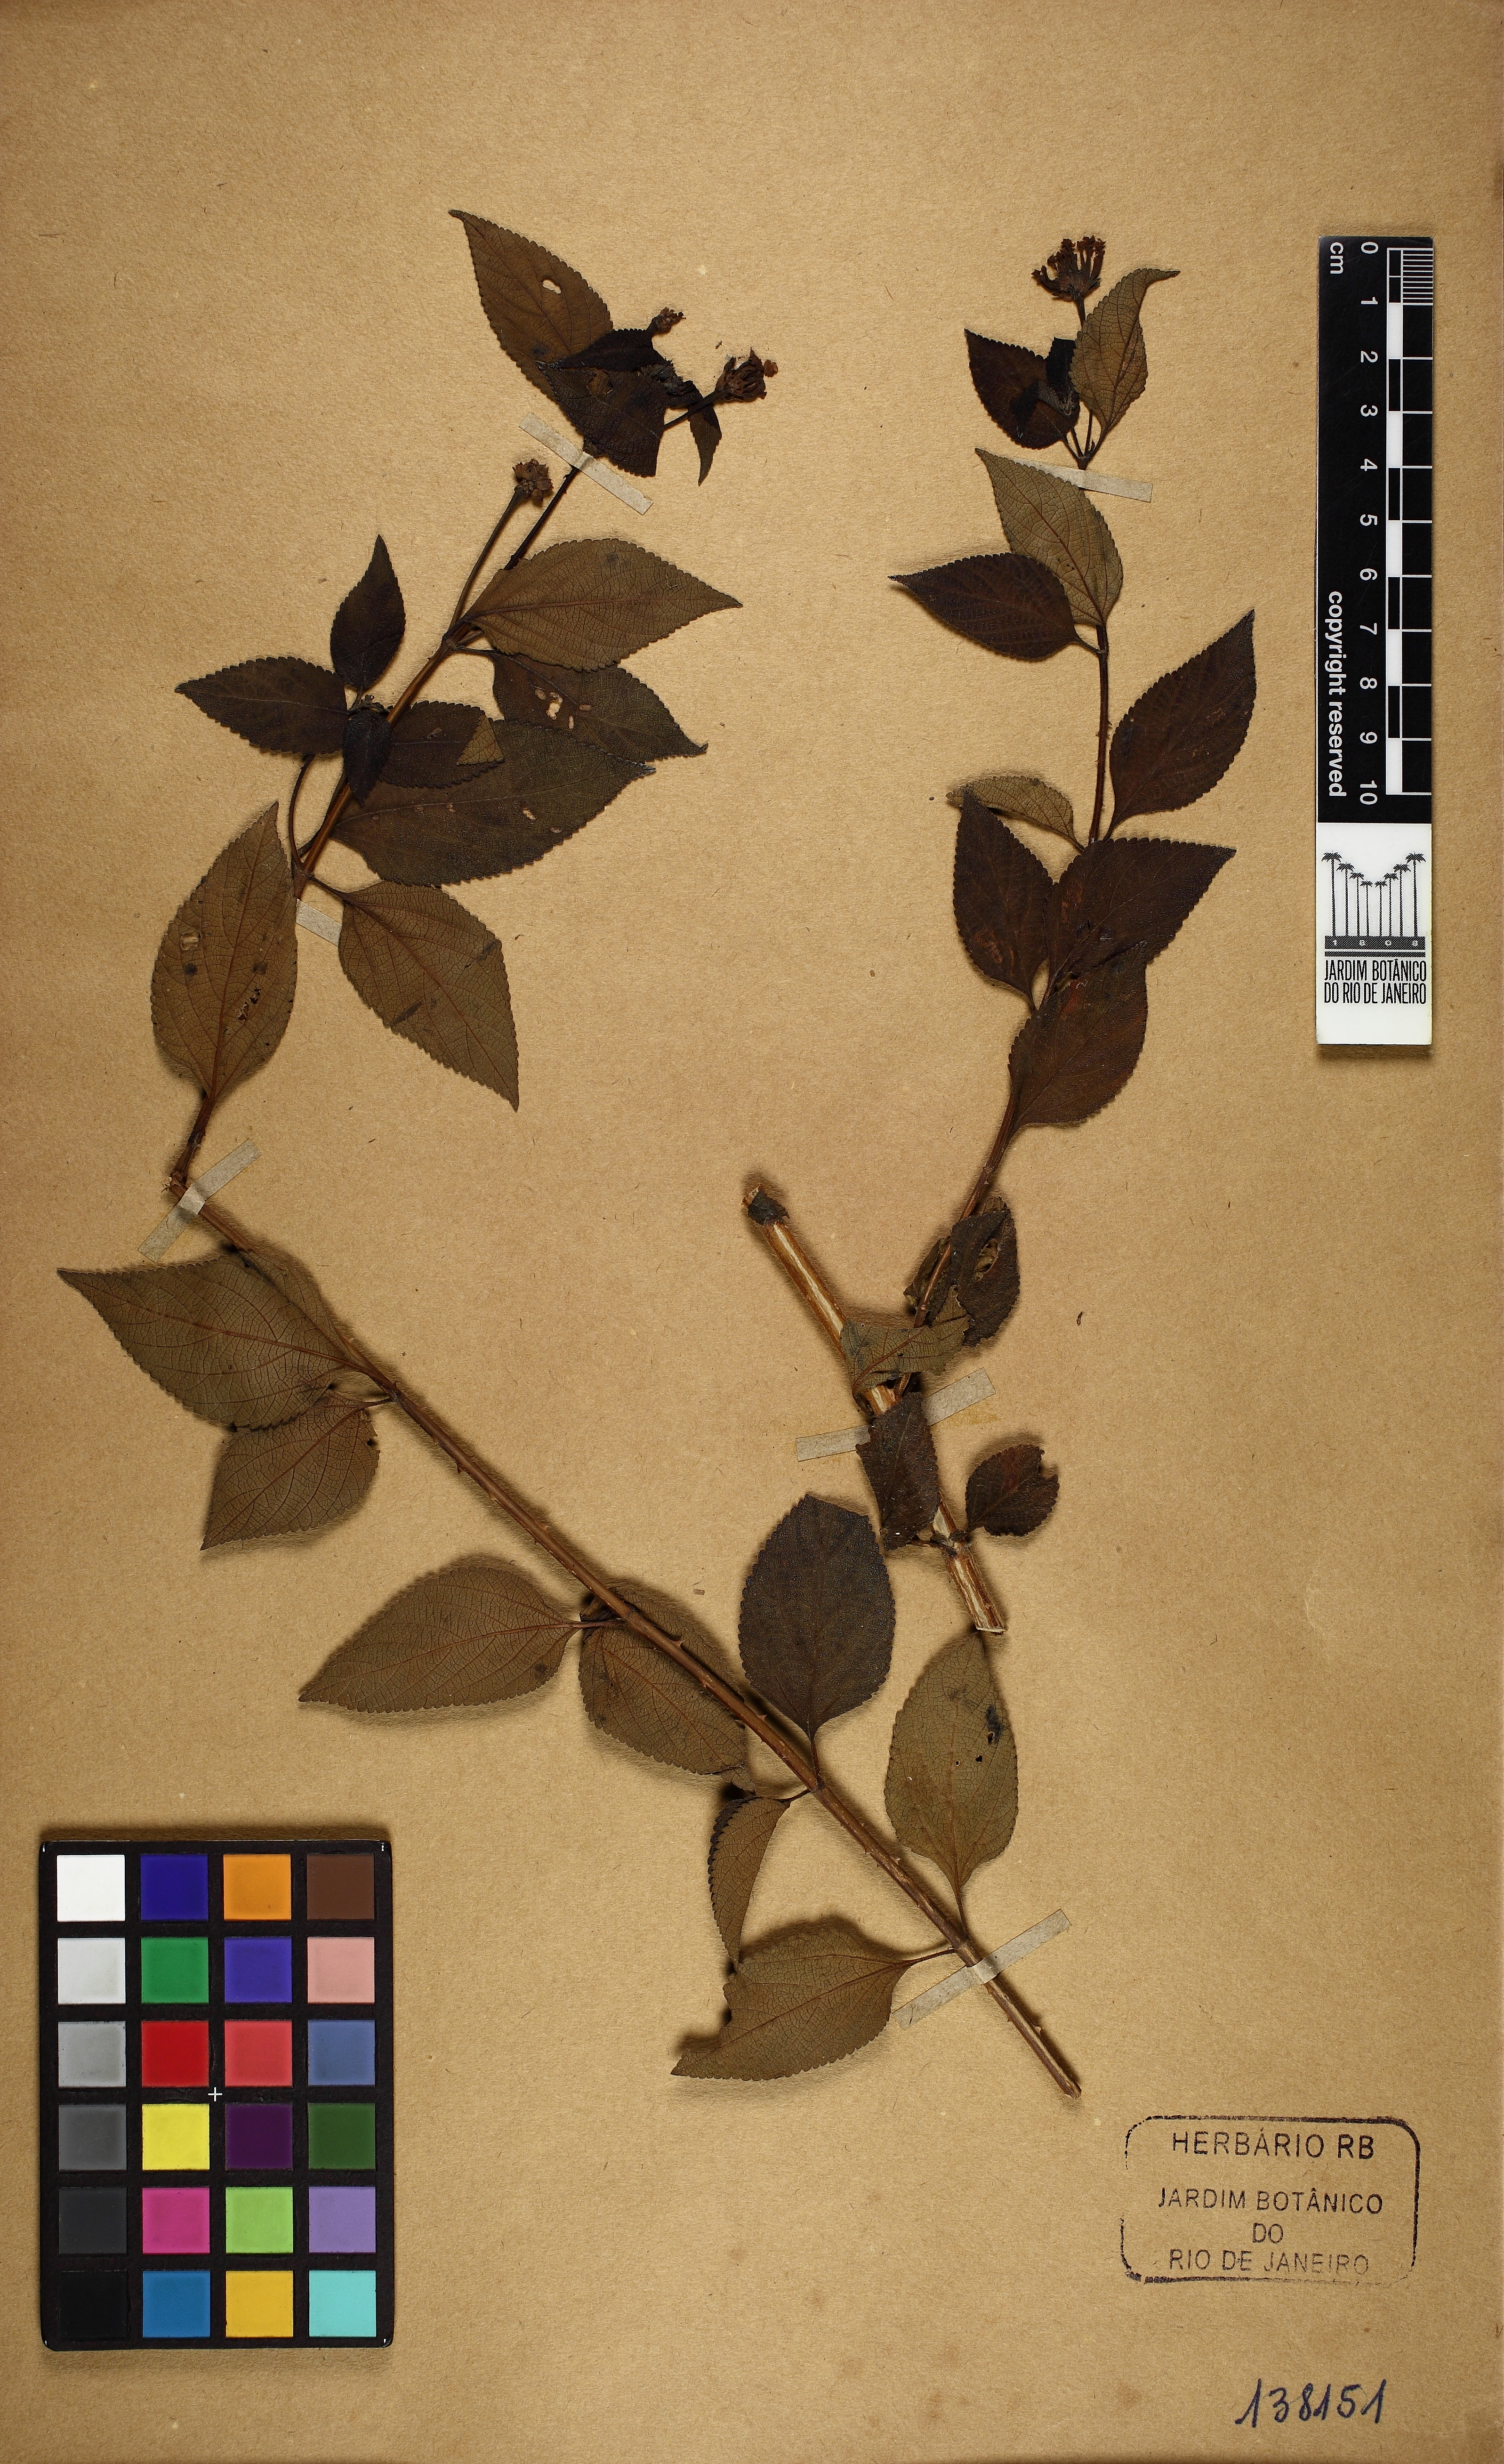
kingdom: Plantae
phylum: Tracheophyta
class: Magnoliopsida
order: Lamiales
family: Verbenaceae
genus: Lantana
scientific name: Lantana
